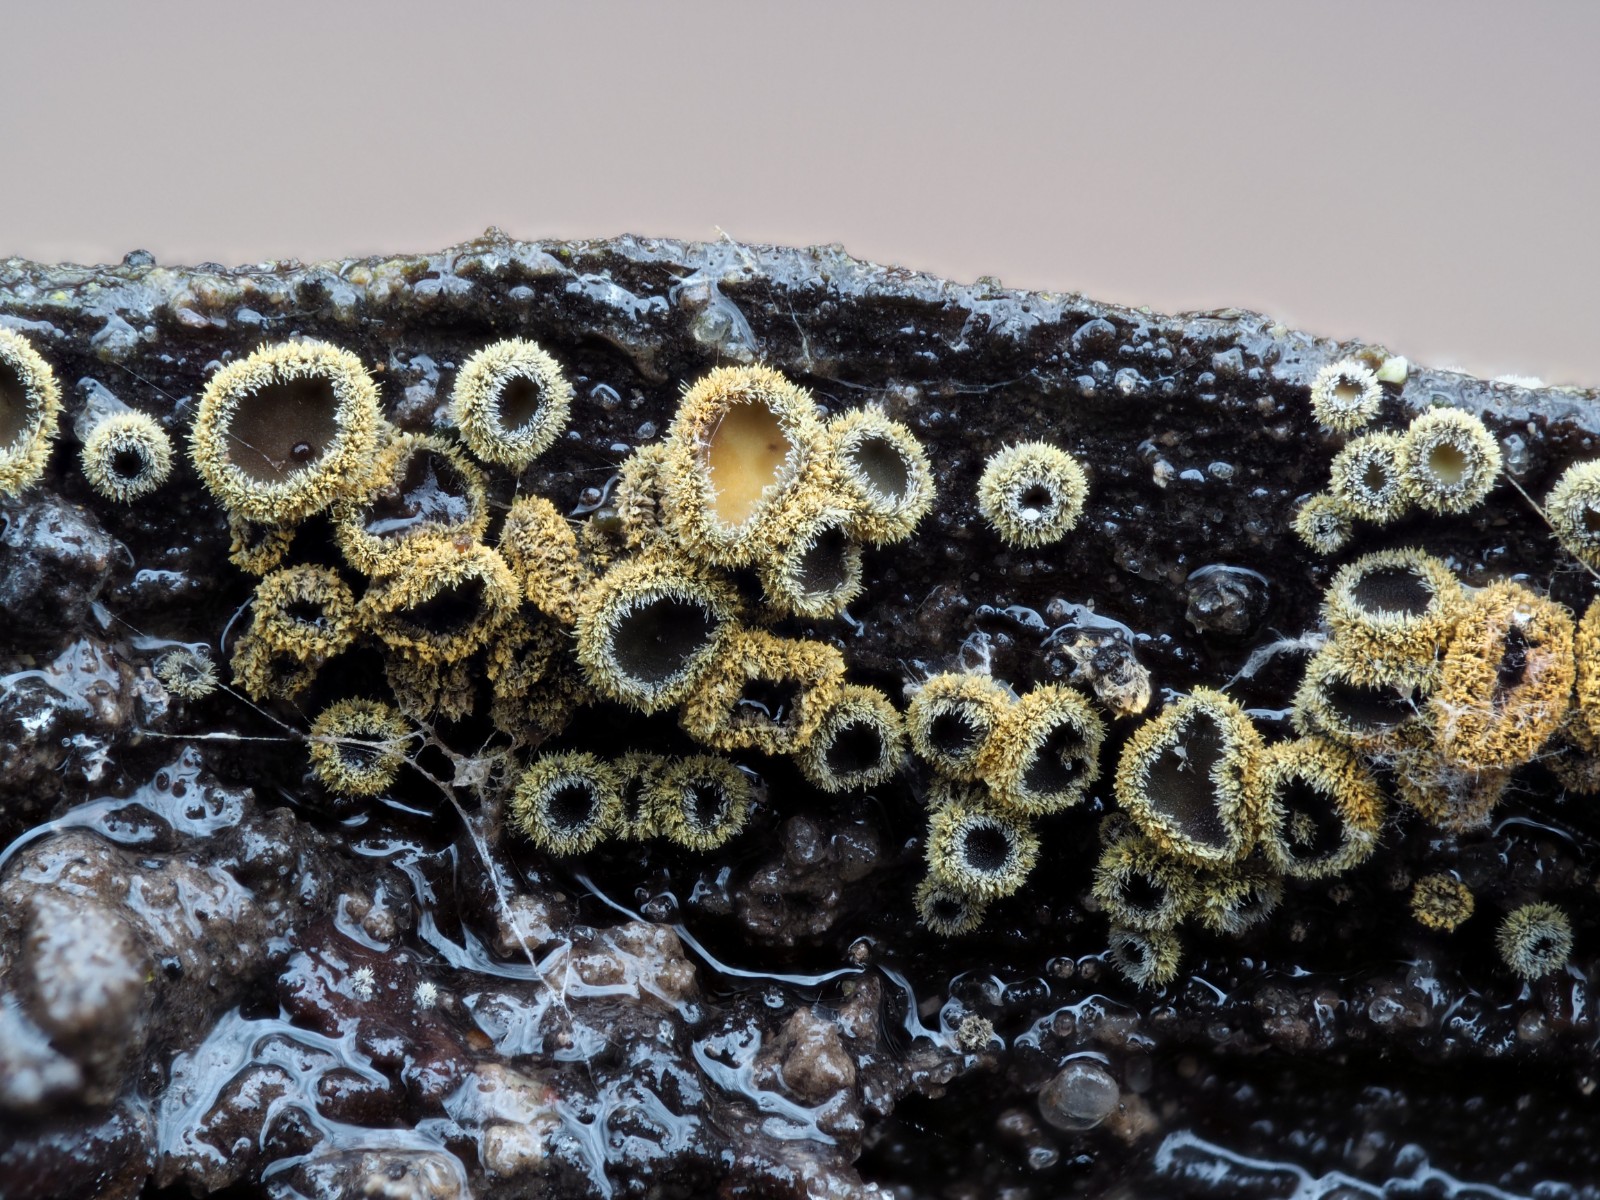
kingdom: Fungi
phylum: Ascomycota
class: Leotiomycetes
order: Helotiales
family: Lachnaceae
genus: Neodasyscypha
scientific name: Neodasyscypha cerina
